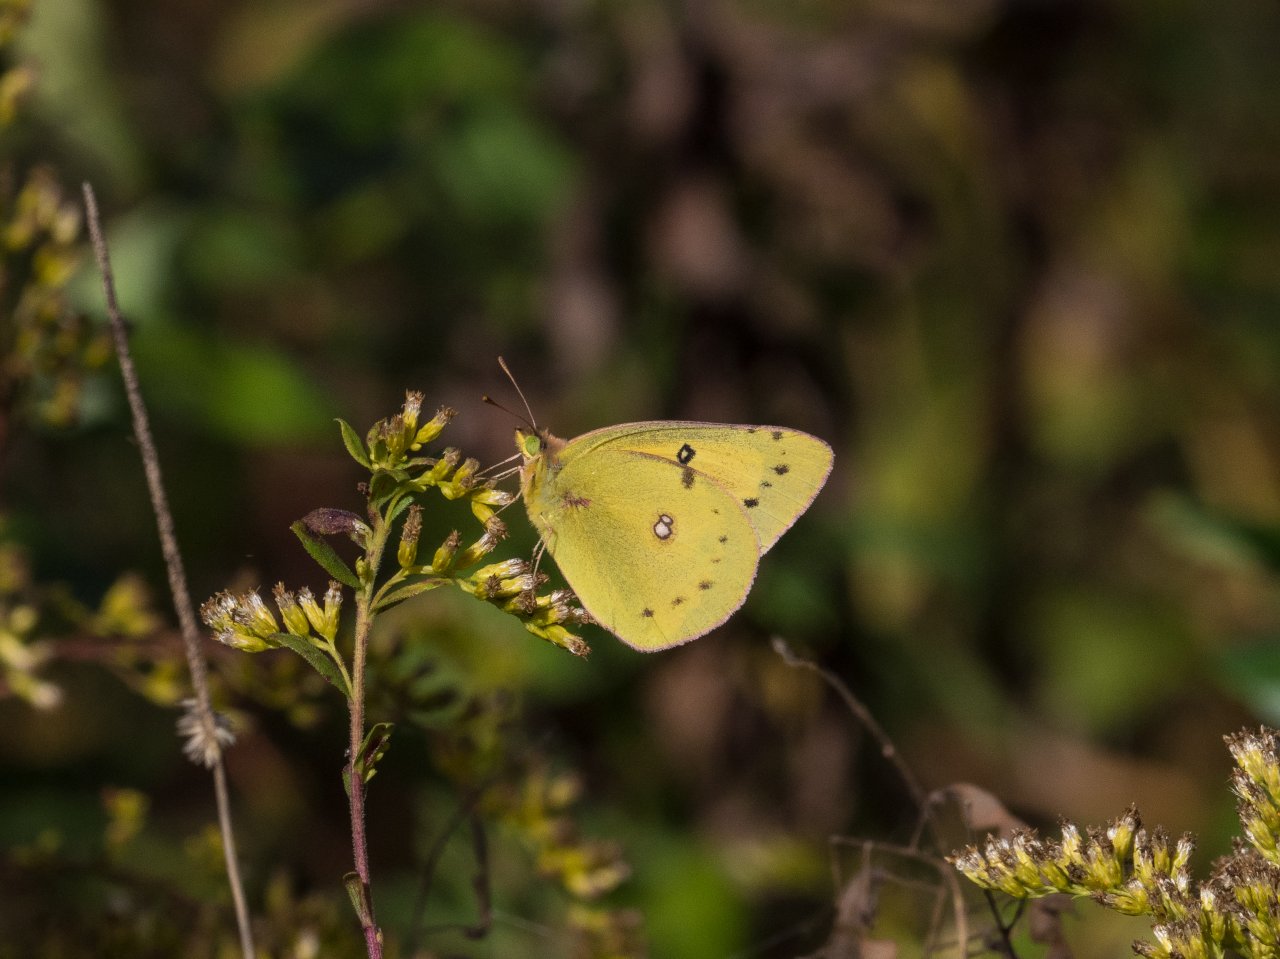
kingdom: Animalia
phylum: Arthropoda
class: Insecta
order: Lepidoptera
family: Pieridae
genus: Colias
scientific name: Colias eurytheme
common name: Orange Sulphur
